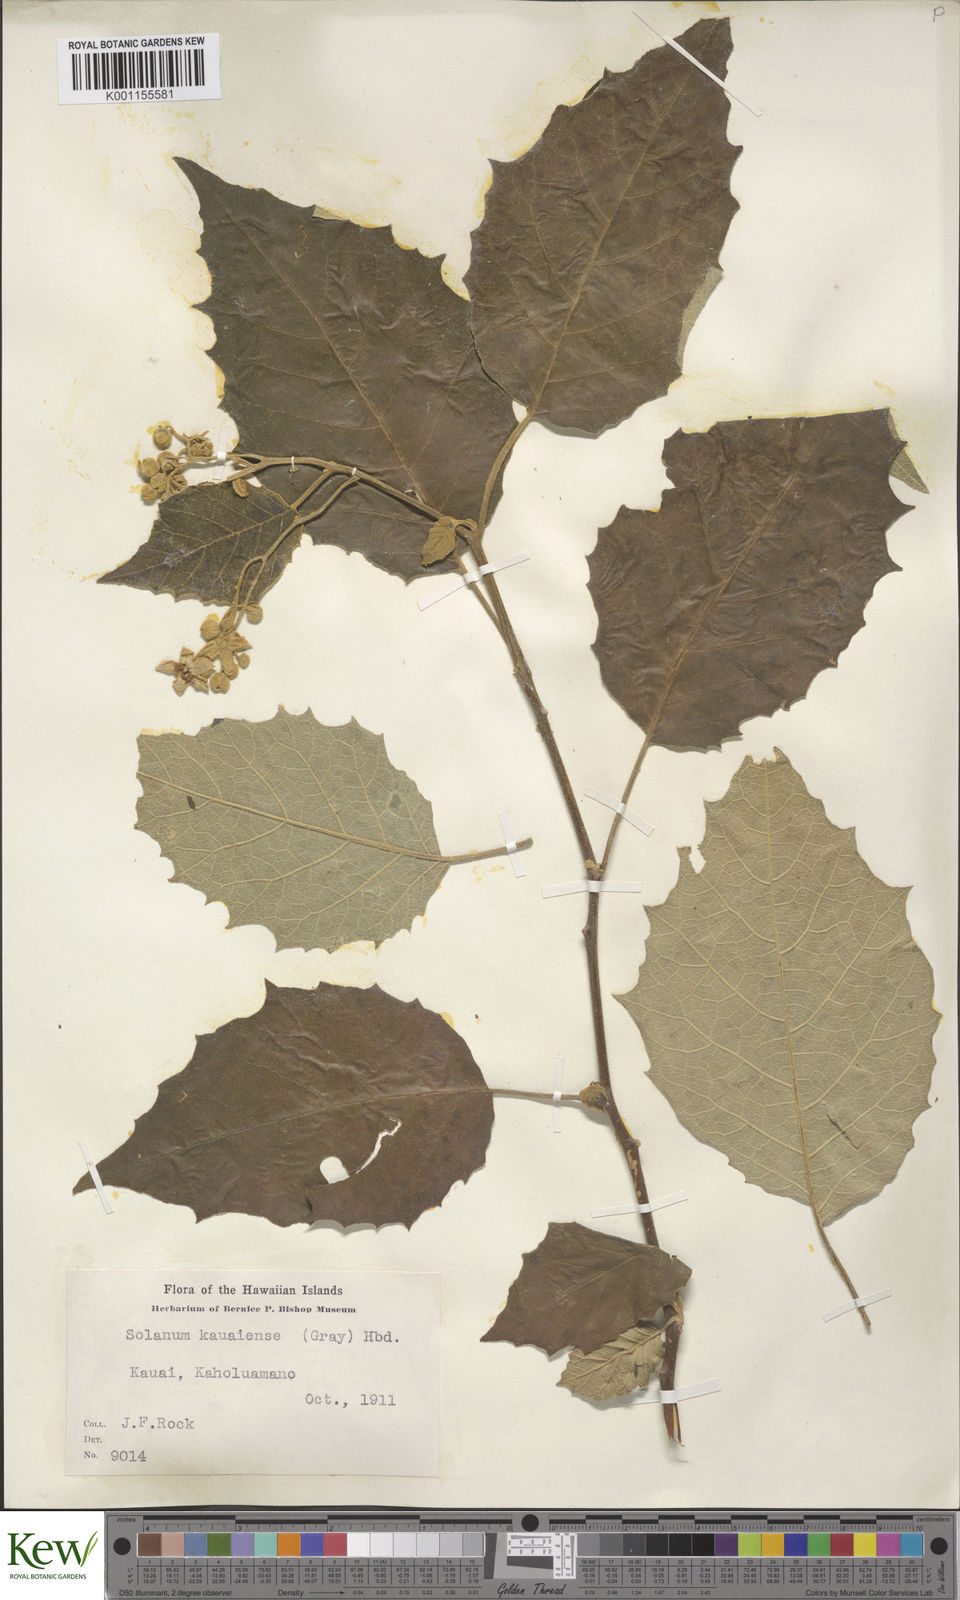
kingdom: Plantae
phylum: Tracheophyta
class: Magnoliopsida
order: Solanales
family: Solanaceae
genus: Solanum
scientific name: Solanum sandwicense
